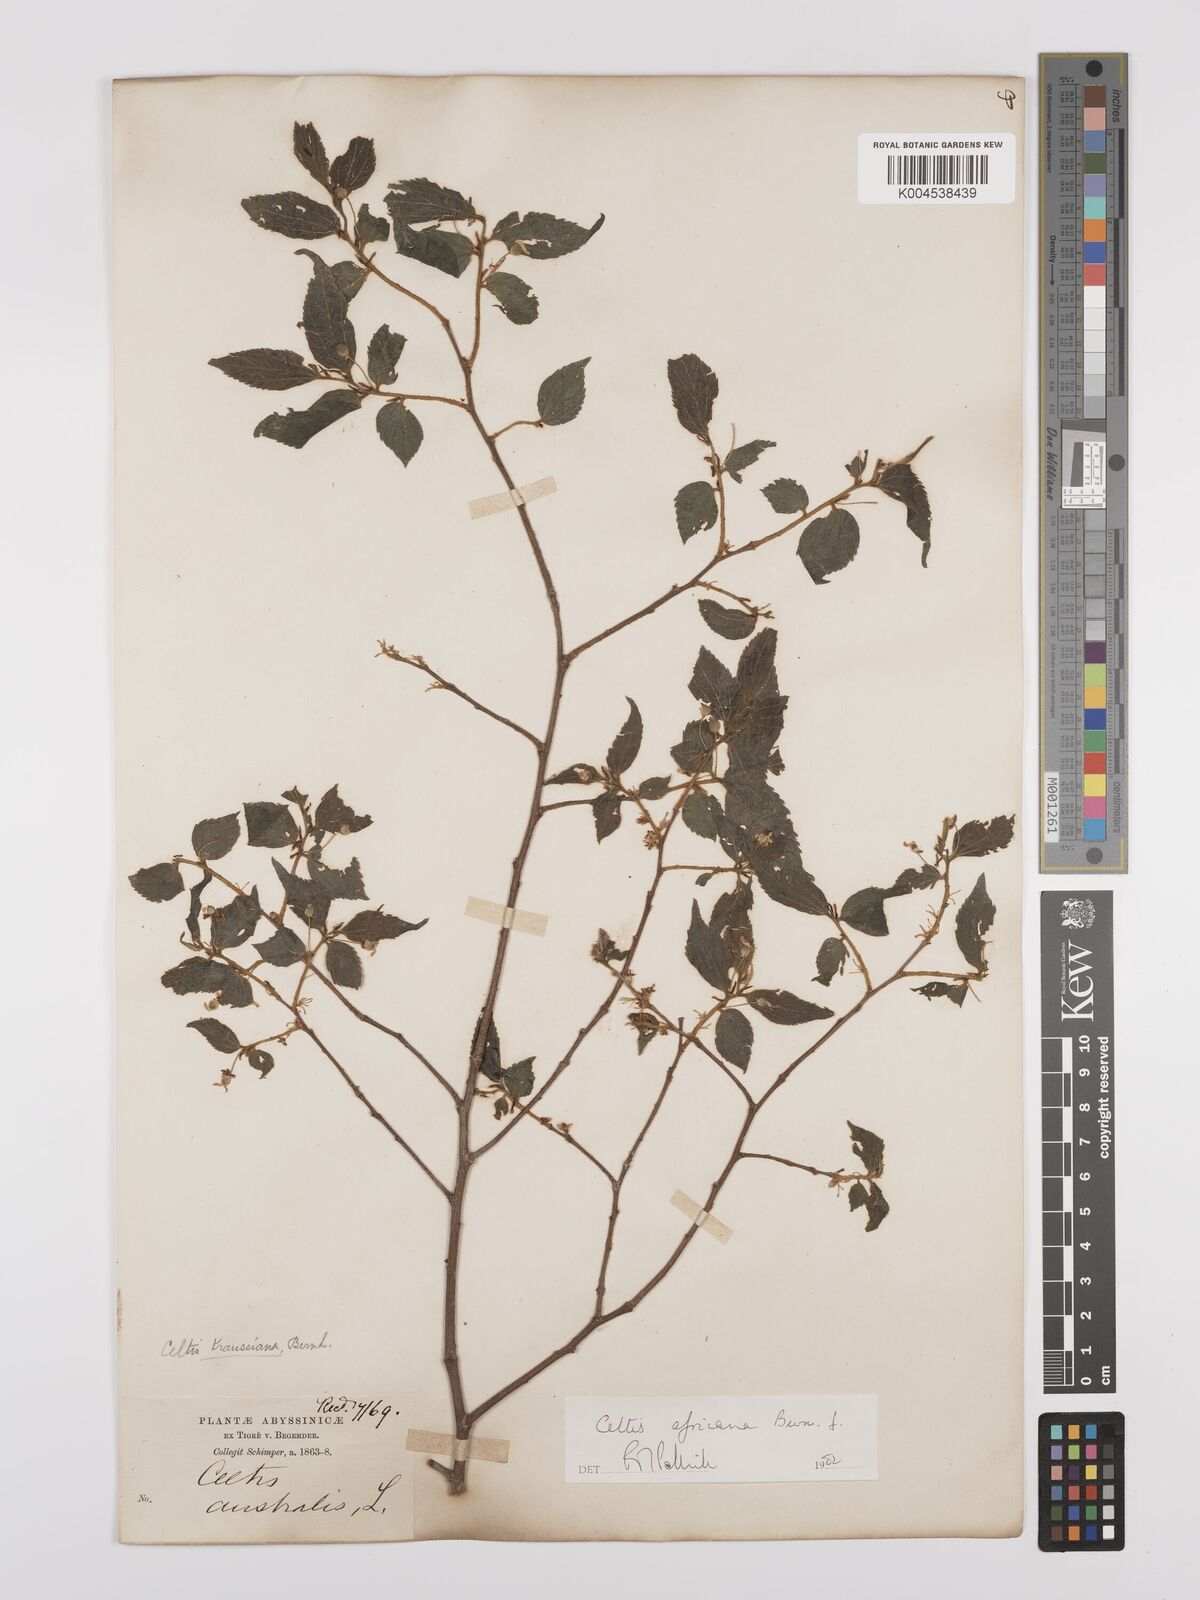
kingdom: Plantae
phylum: Tracheophyta
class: Magnoliopsida
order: Rosales
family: Cannabaceae
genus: Celtis
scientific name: Celtis africana
